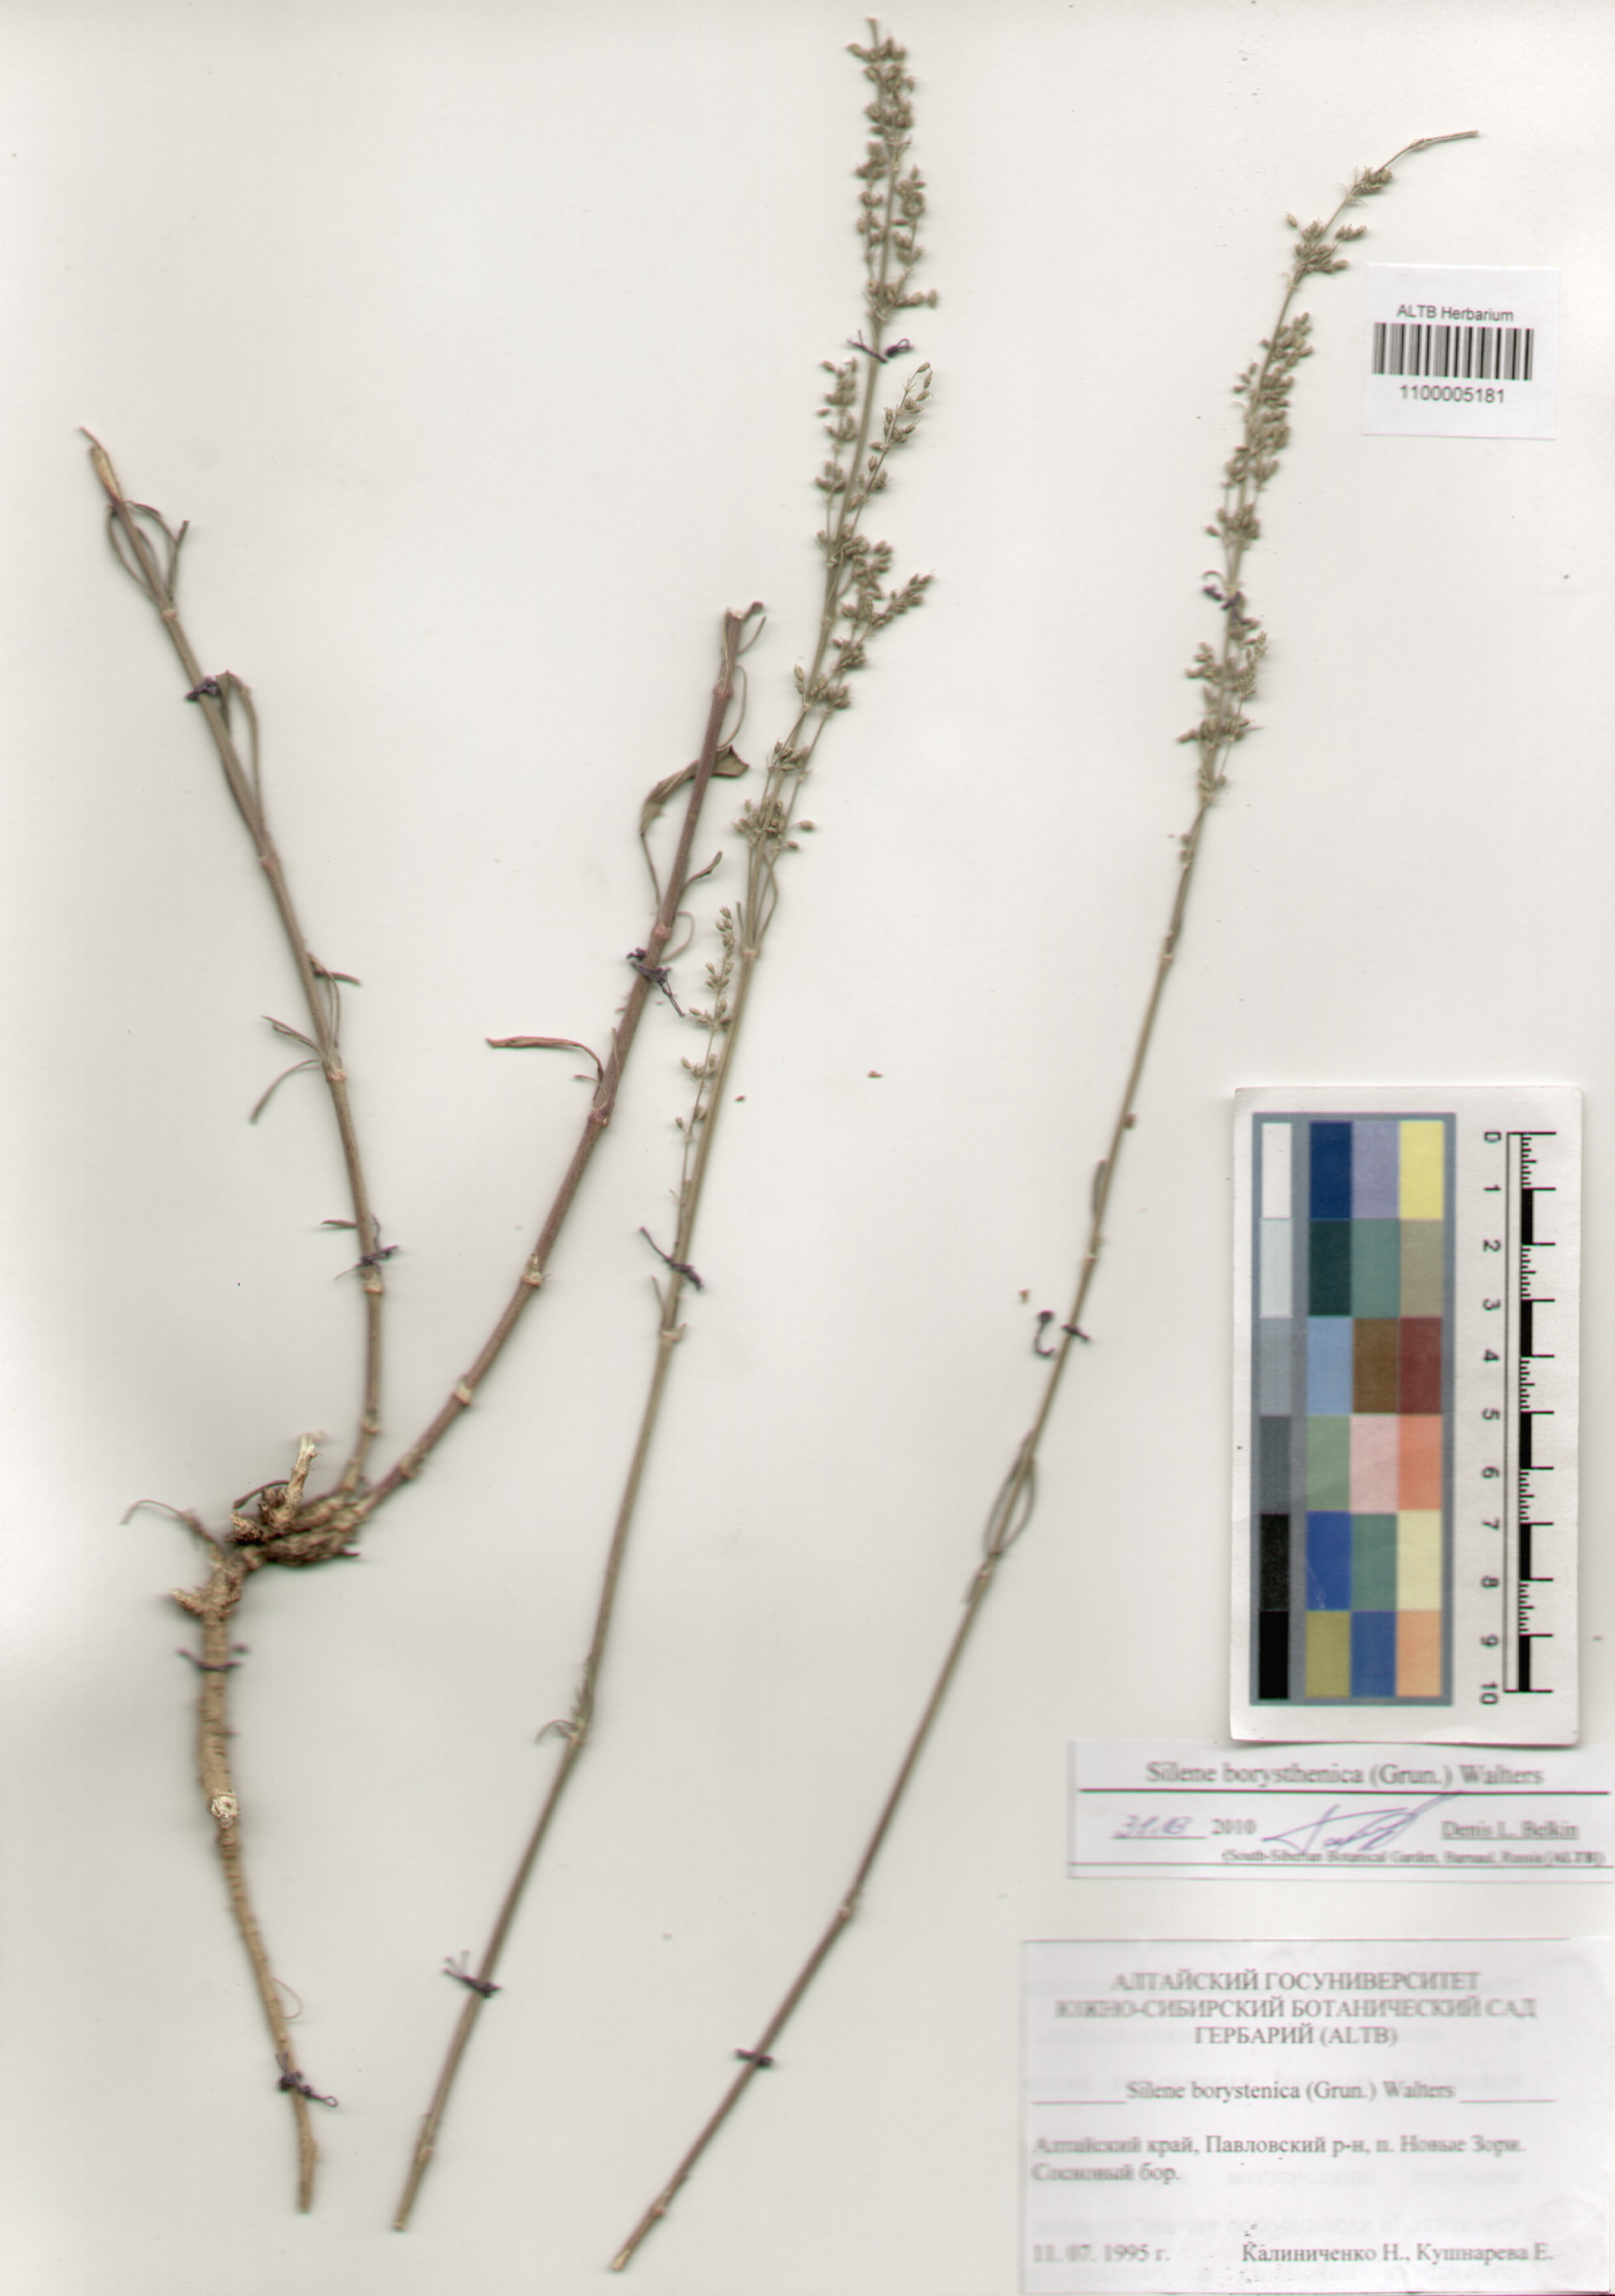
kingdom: Plantae
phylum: Tracheophyta
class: Magnoliopsida
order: Caryophyllales
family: Caryophyllaceae
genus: Silene
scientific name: Silene borysthenica
